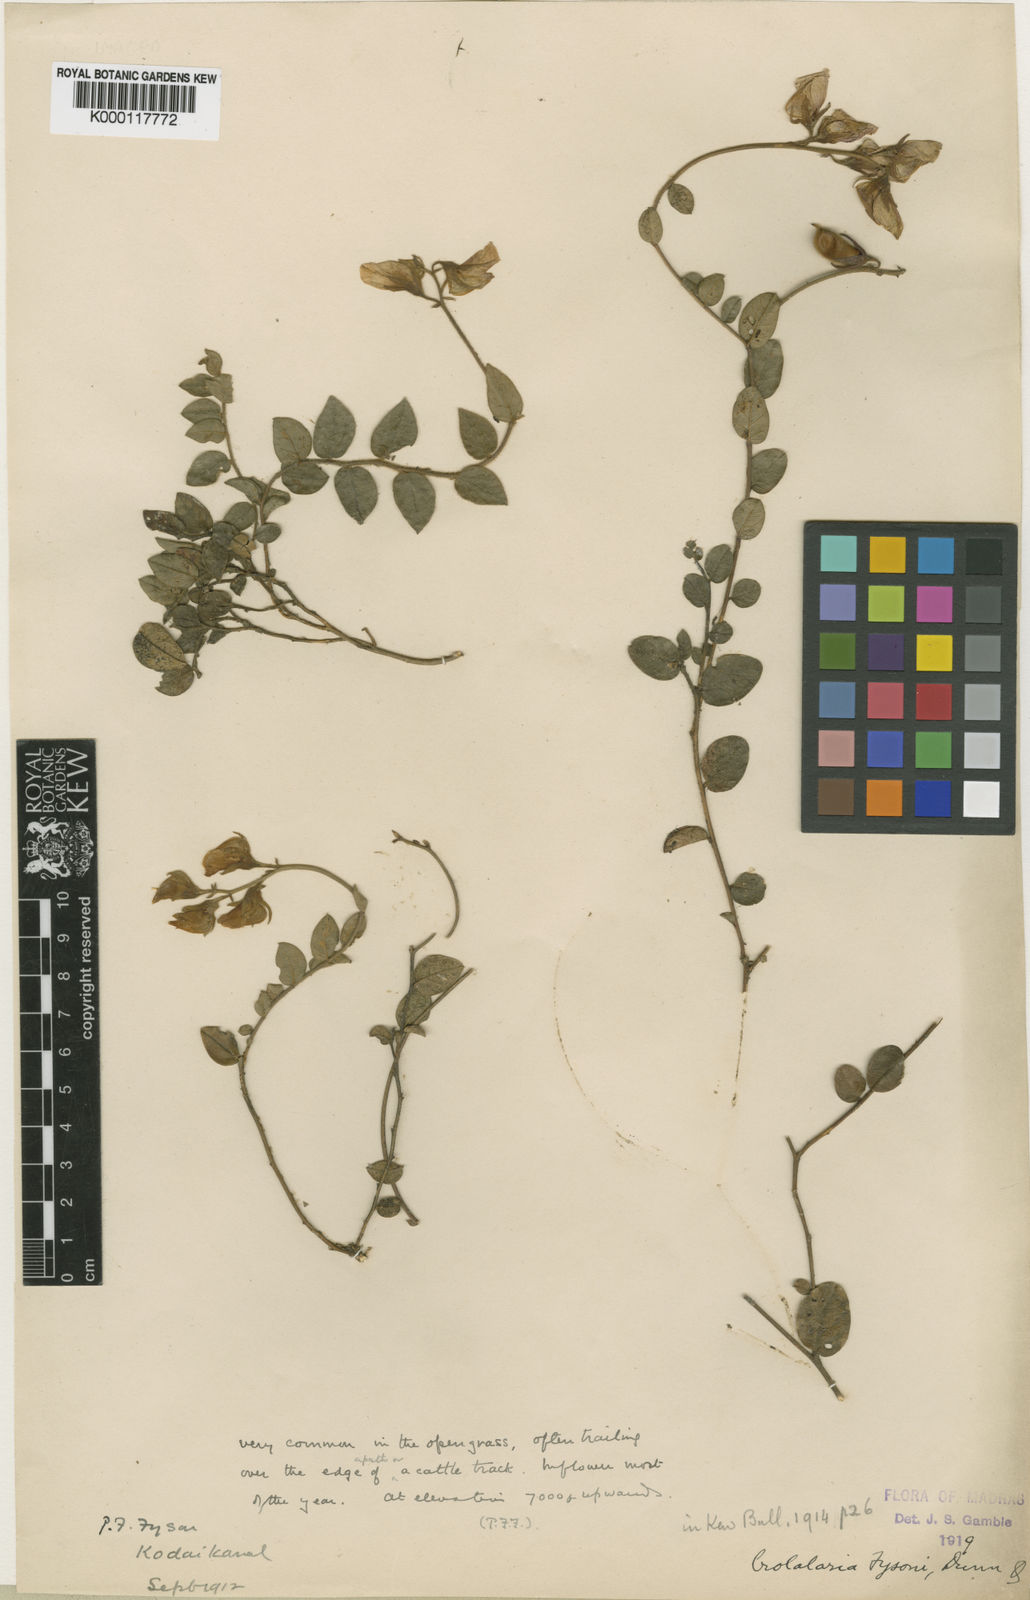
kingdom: Plantae
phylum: Tracheophyta
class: Magnoliopsida
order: Fabales
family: Fabaceae
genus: Crotalaria
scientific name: Crotalaria fysonii
